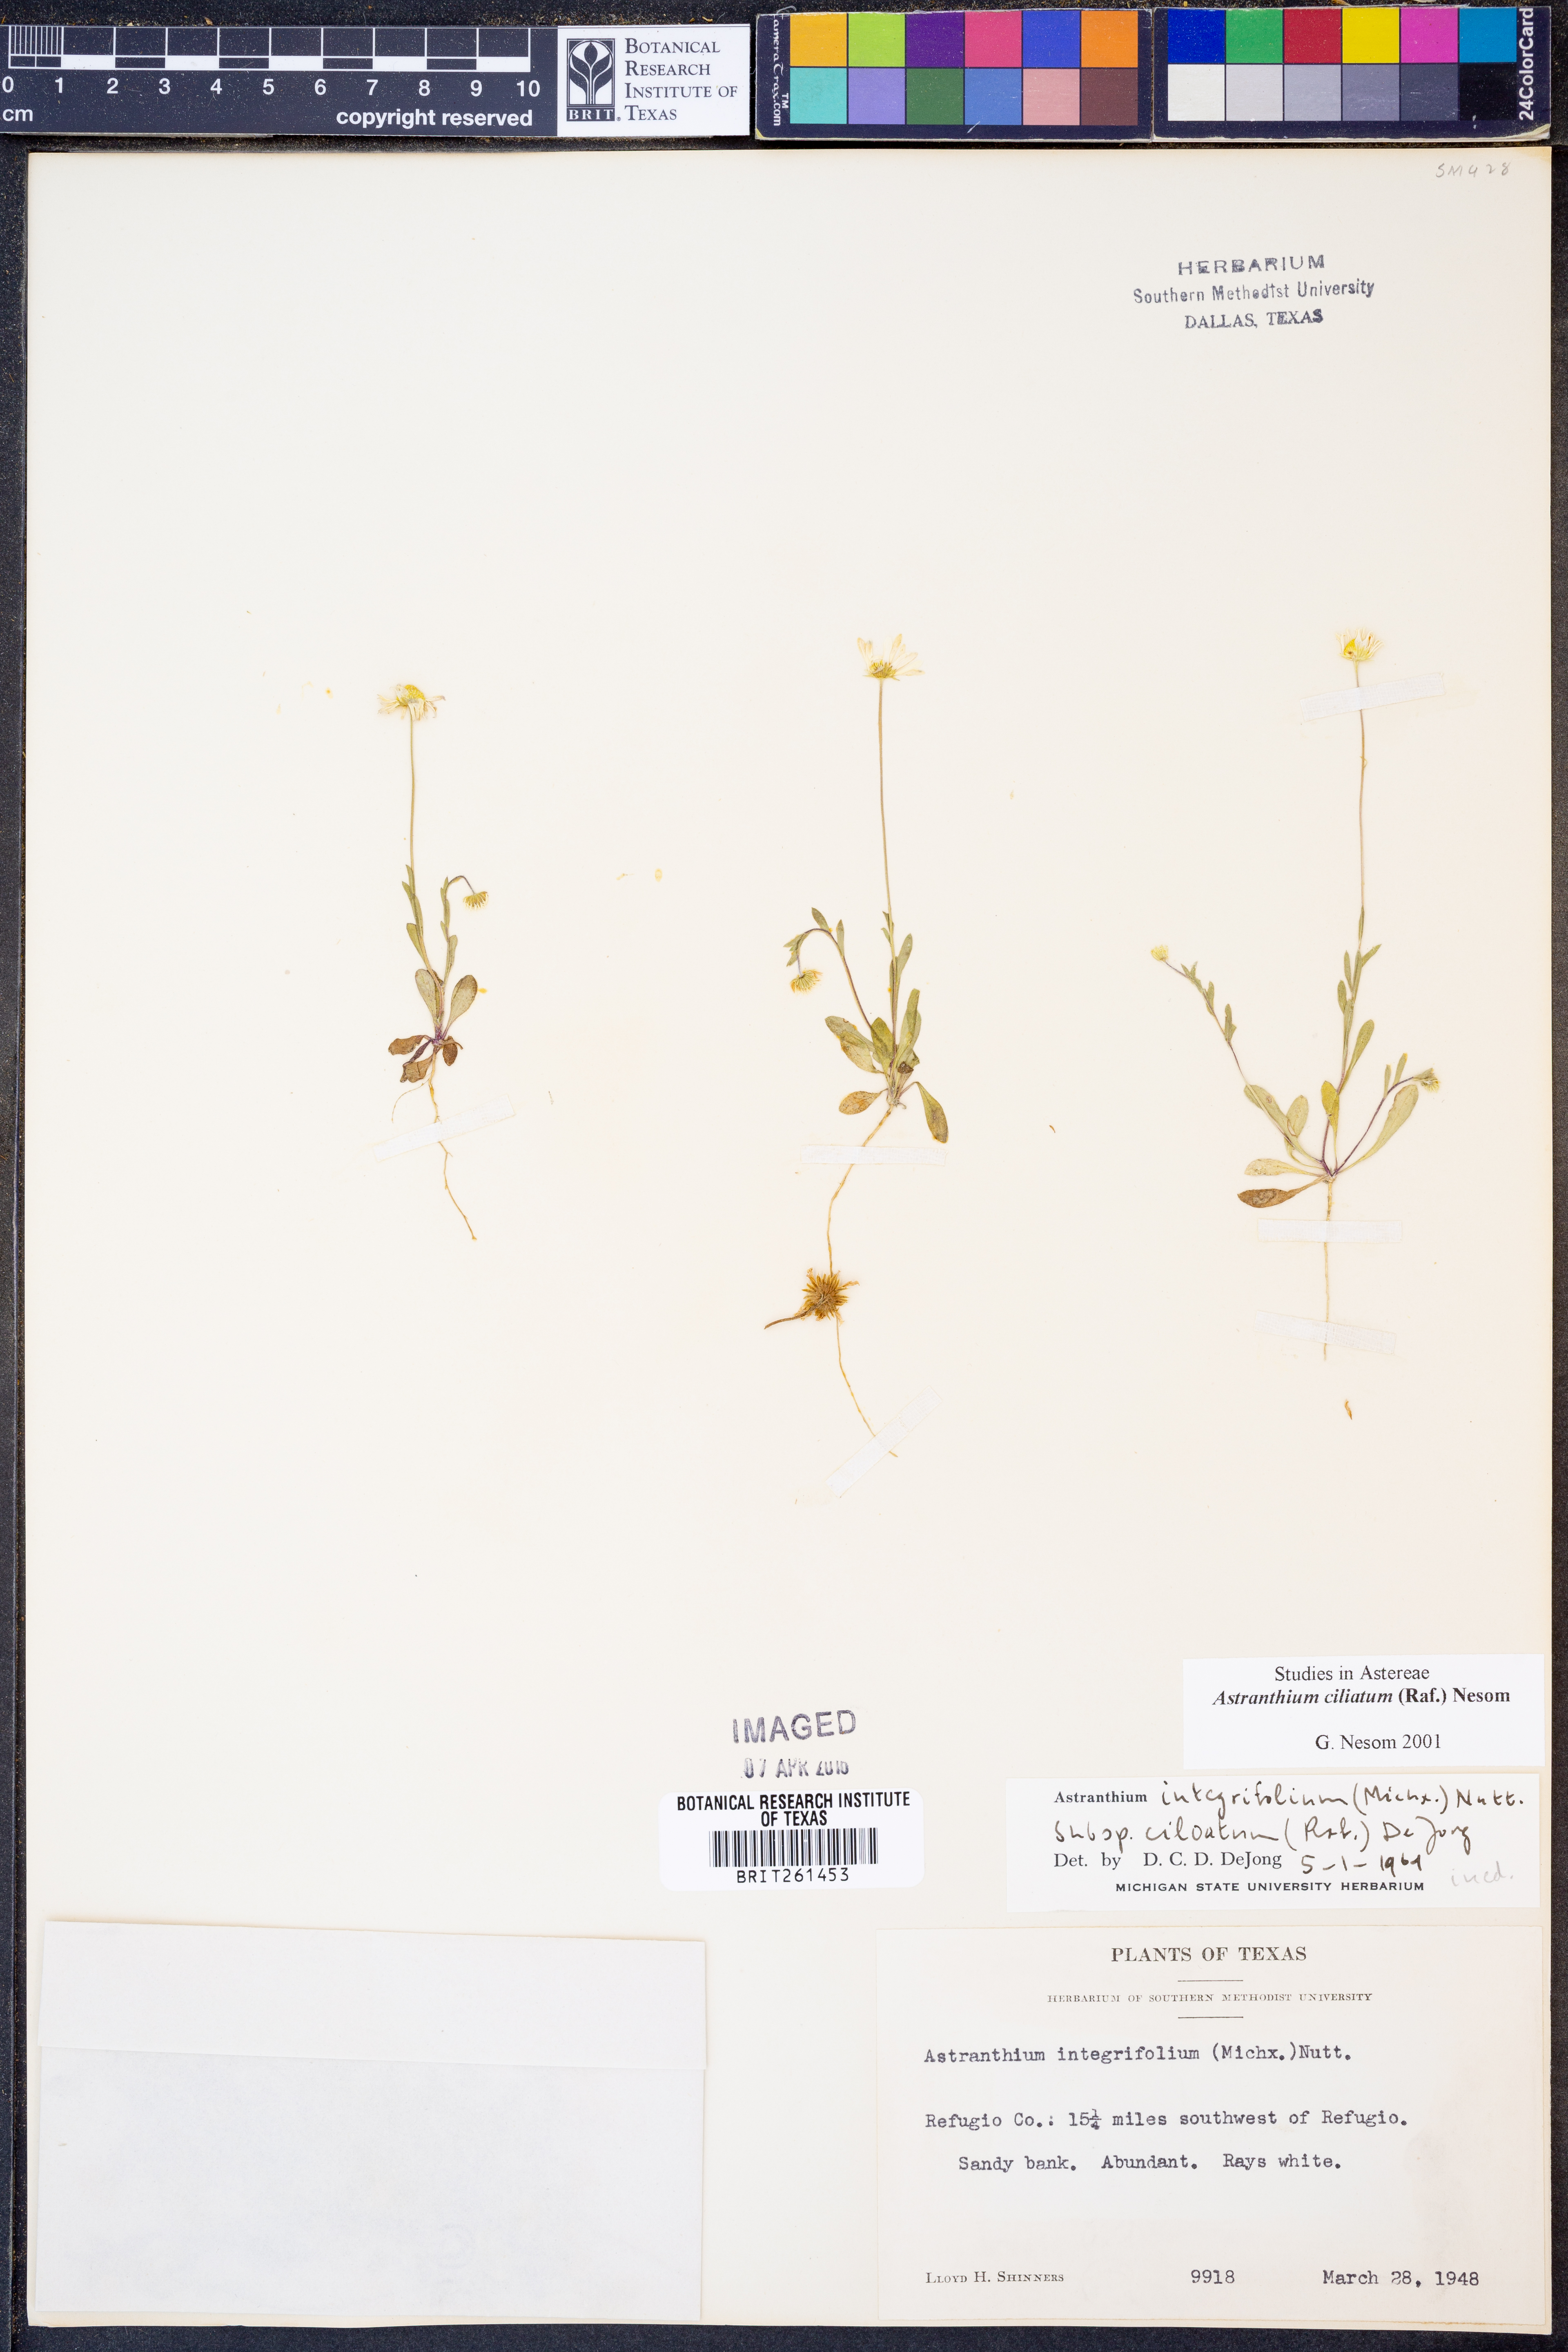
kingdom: Plantae
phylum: Tracheophyta
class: Magnoliopsida
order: Asterales
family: Asteraceae
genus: Astranthium
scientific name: Astranthium ciliatum
